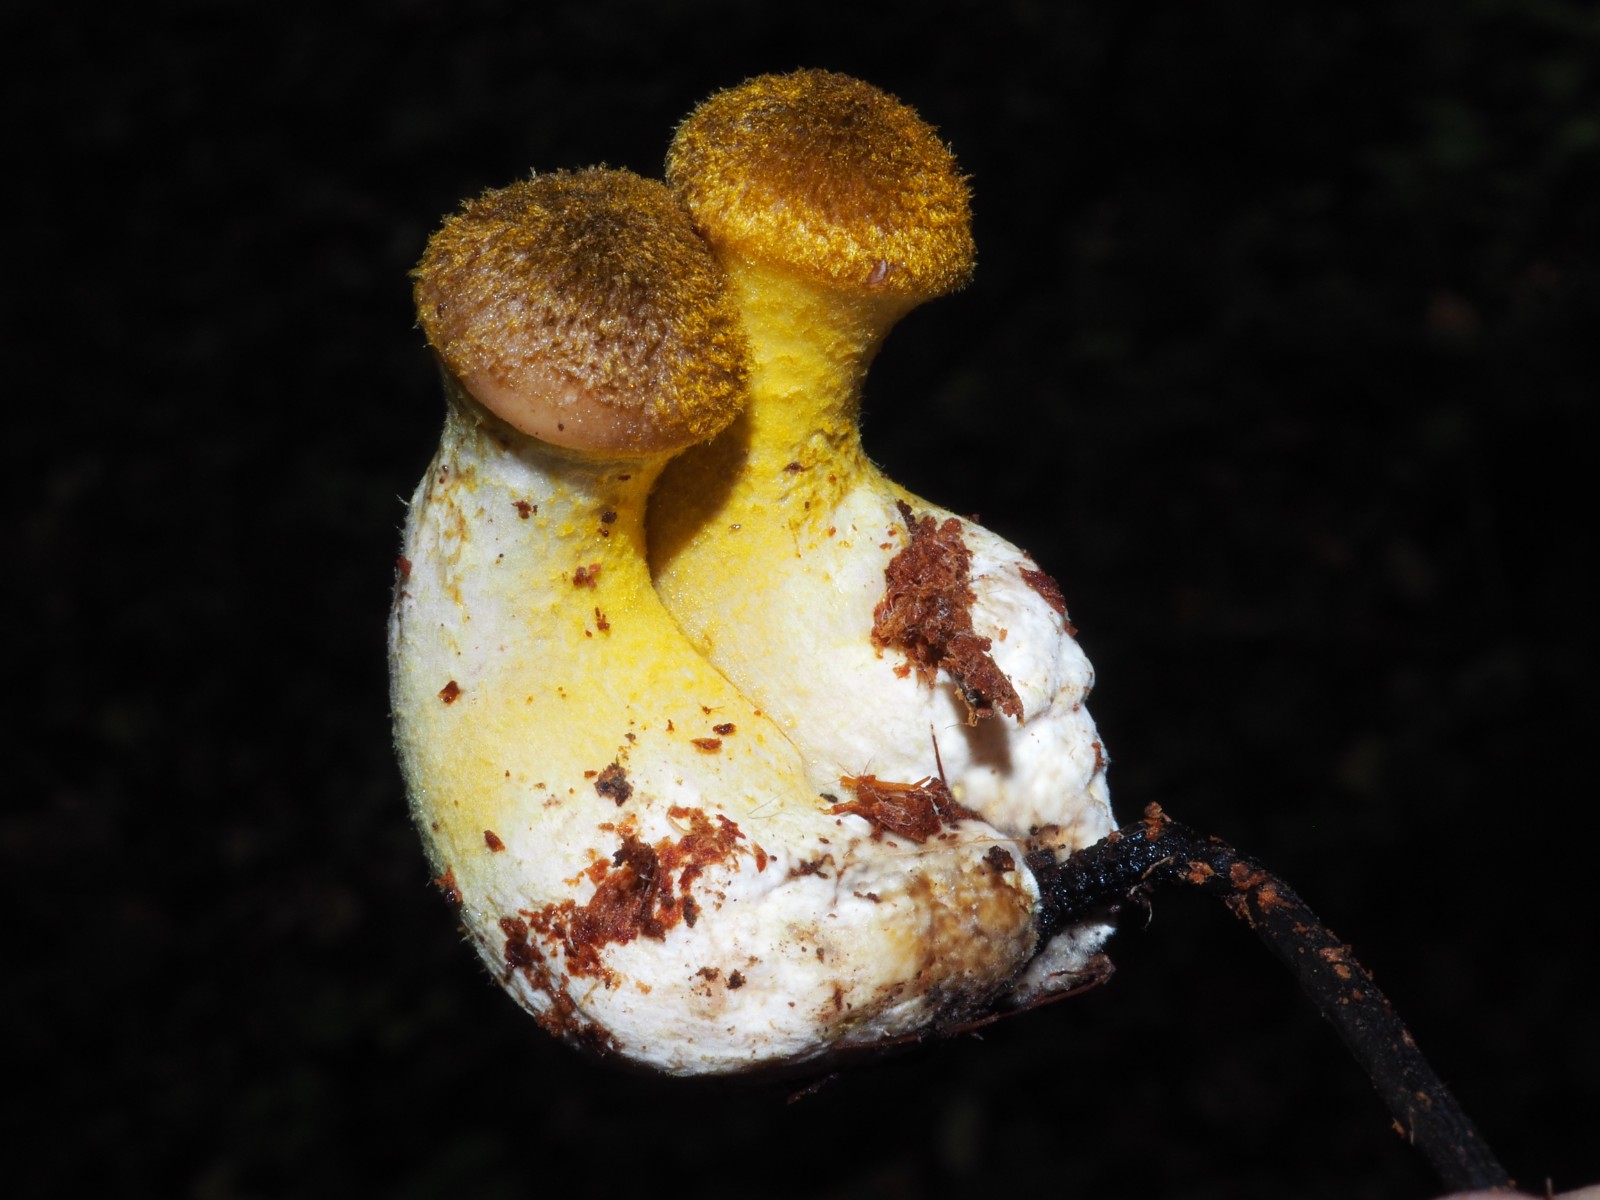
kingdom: Fungi
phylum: Basidiomycota
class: Agaricomycetes
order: Agaricales
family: Physalacriaceae
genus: Armillaria
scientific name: Armillaria lutea
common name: køllestokket honningsvamp
